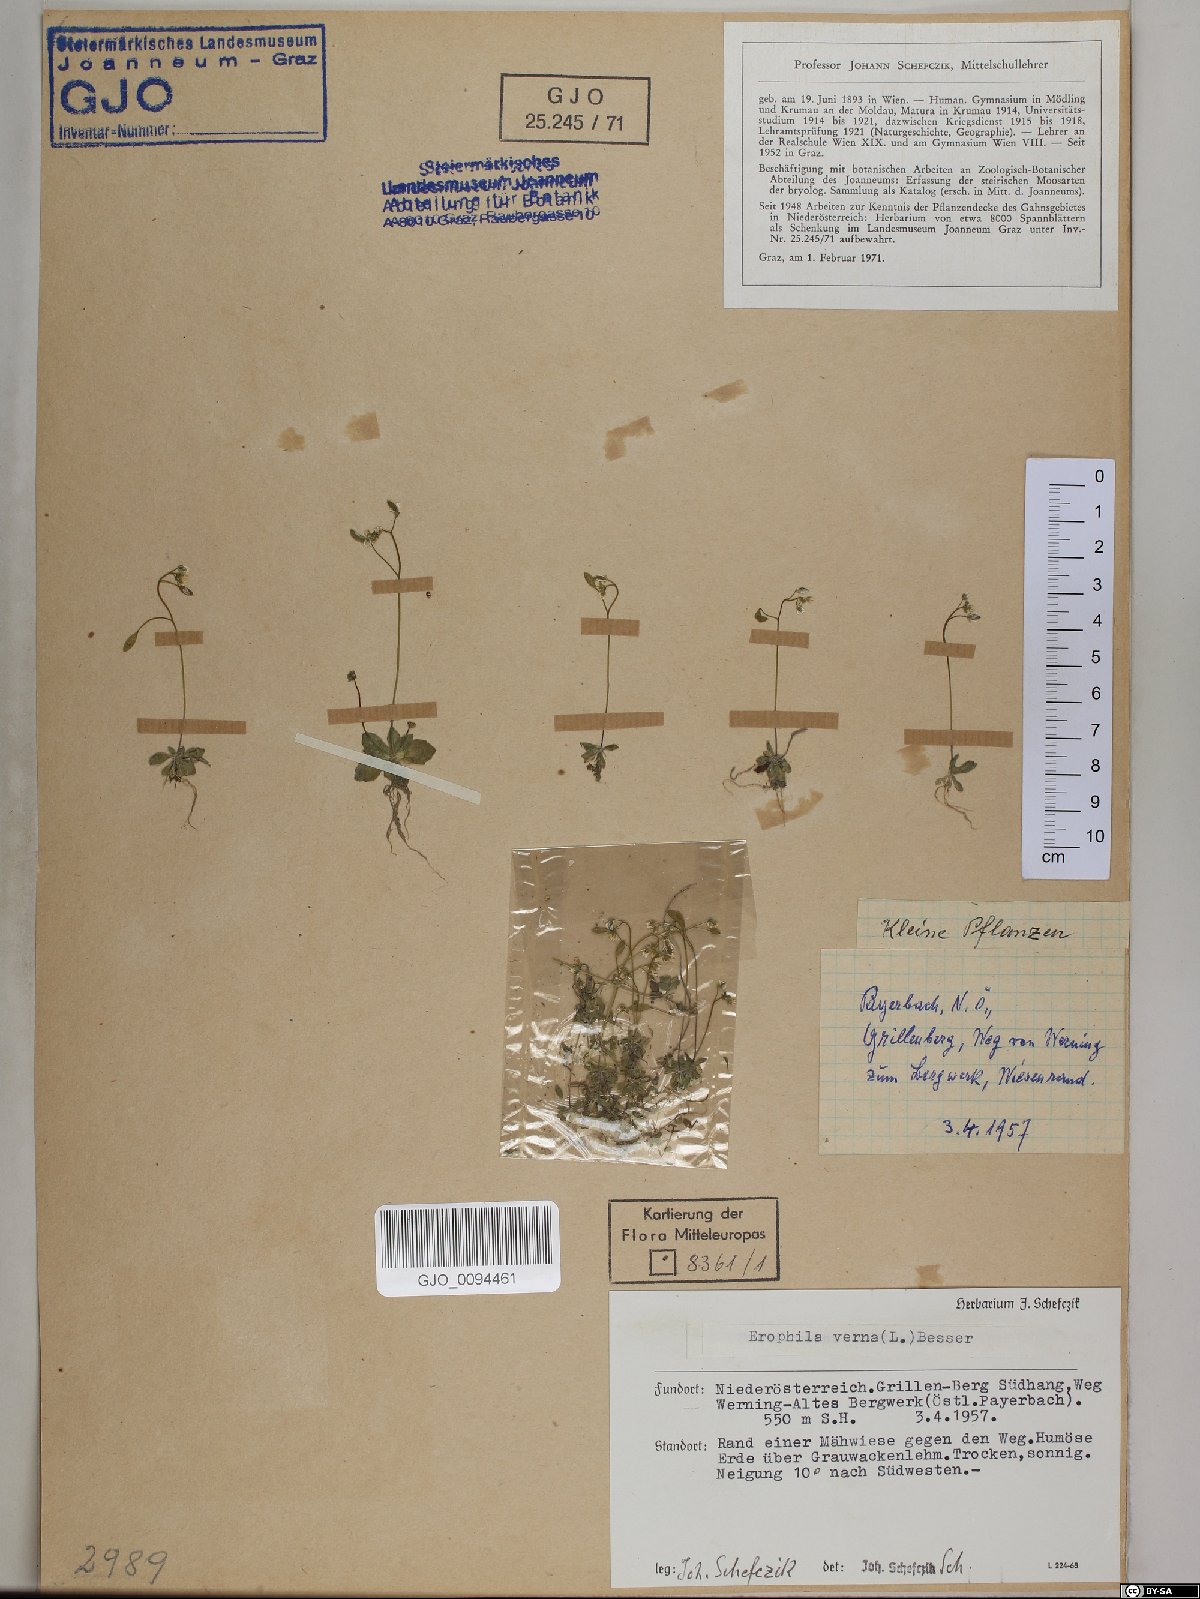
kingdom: Plantae
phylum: Tracheophyta
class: Magnoliopsida
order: Brassicales
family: Brassicaceae
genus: Draba
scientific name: Draba verna
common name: Spring draba
